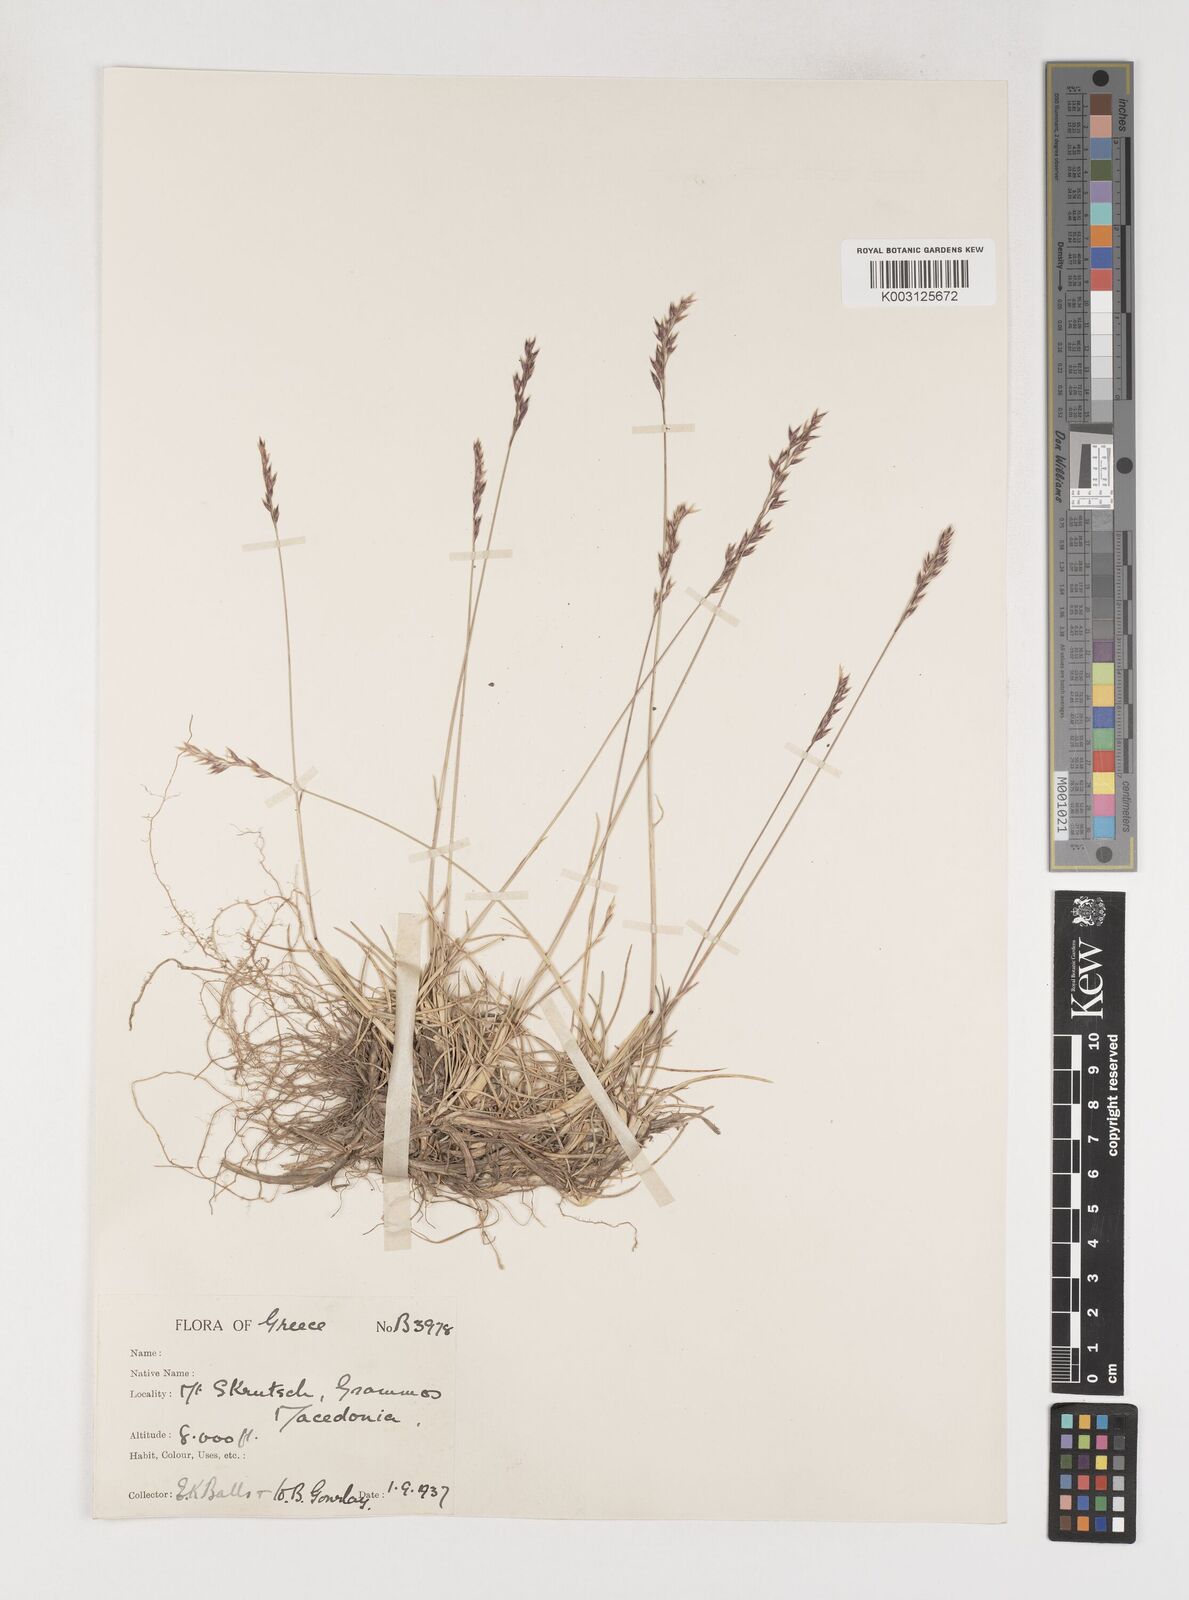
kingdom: Plantae
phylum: Tracheophyta
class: Liliopsida
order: Poales
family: Poaceae
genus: Poa
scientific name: Poa
